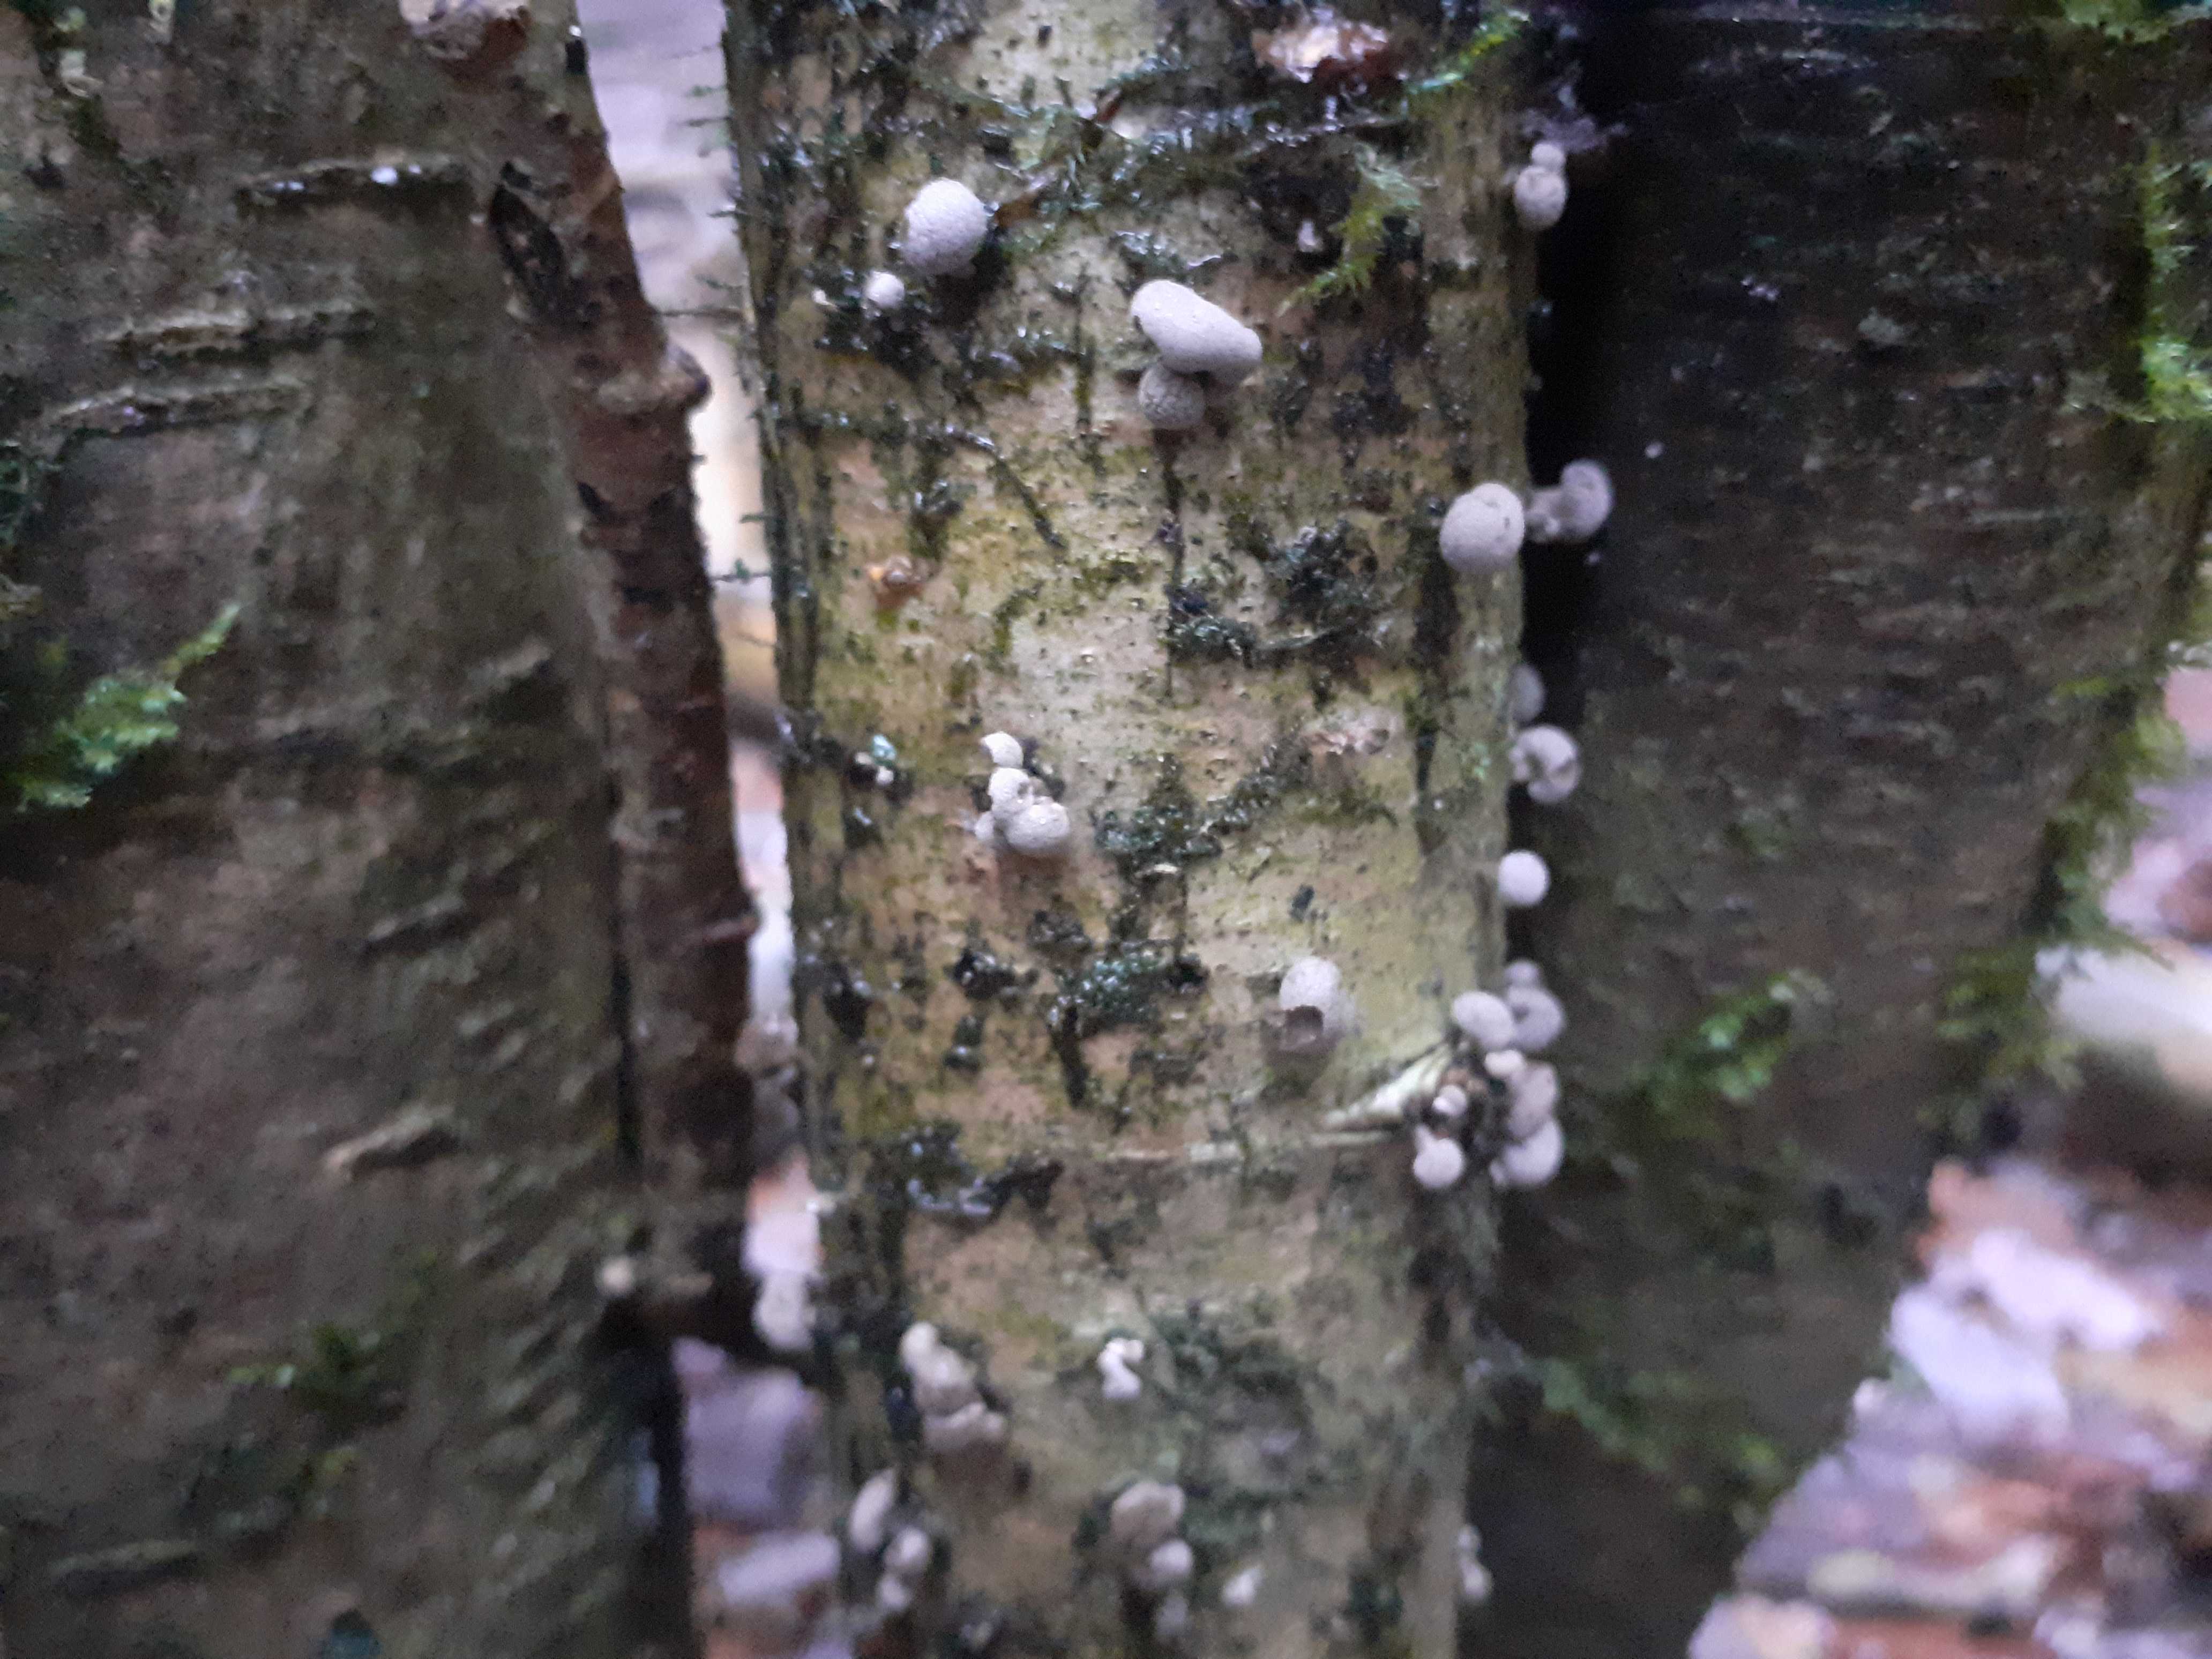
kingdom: Fungi
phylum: Basidiomycota
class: Atractiellomycetes
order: Atractiellales
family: Phleogenaceae
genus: Phleogena
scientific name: Phleogena faginea
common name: pudderkølle
